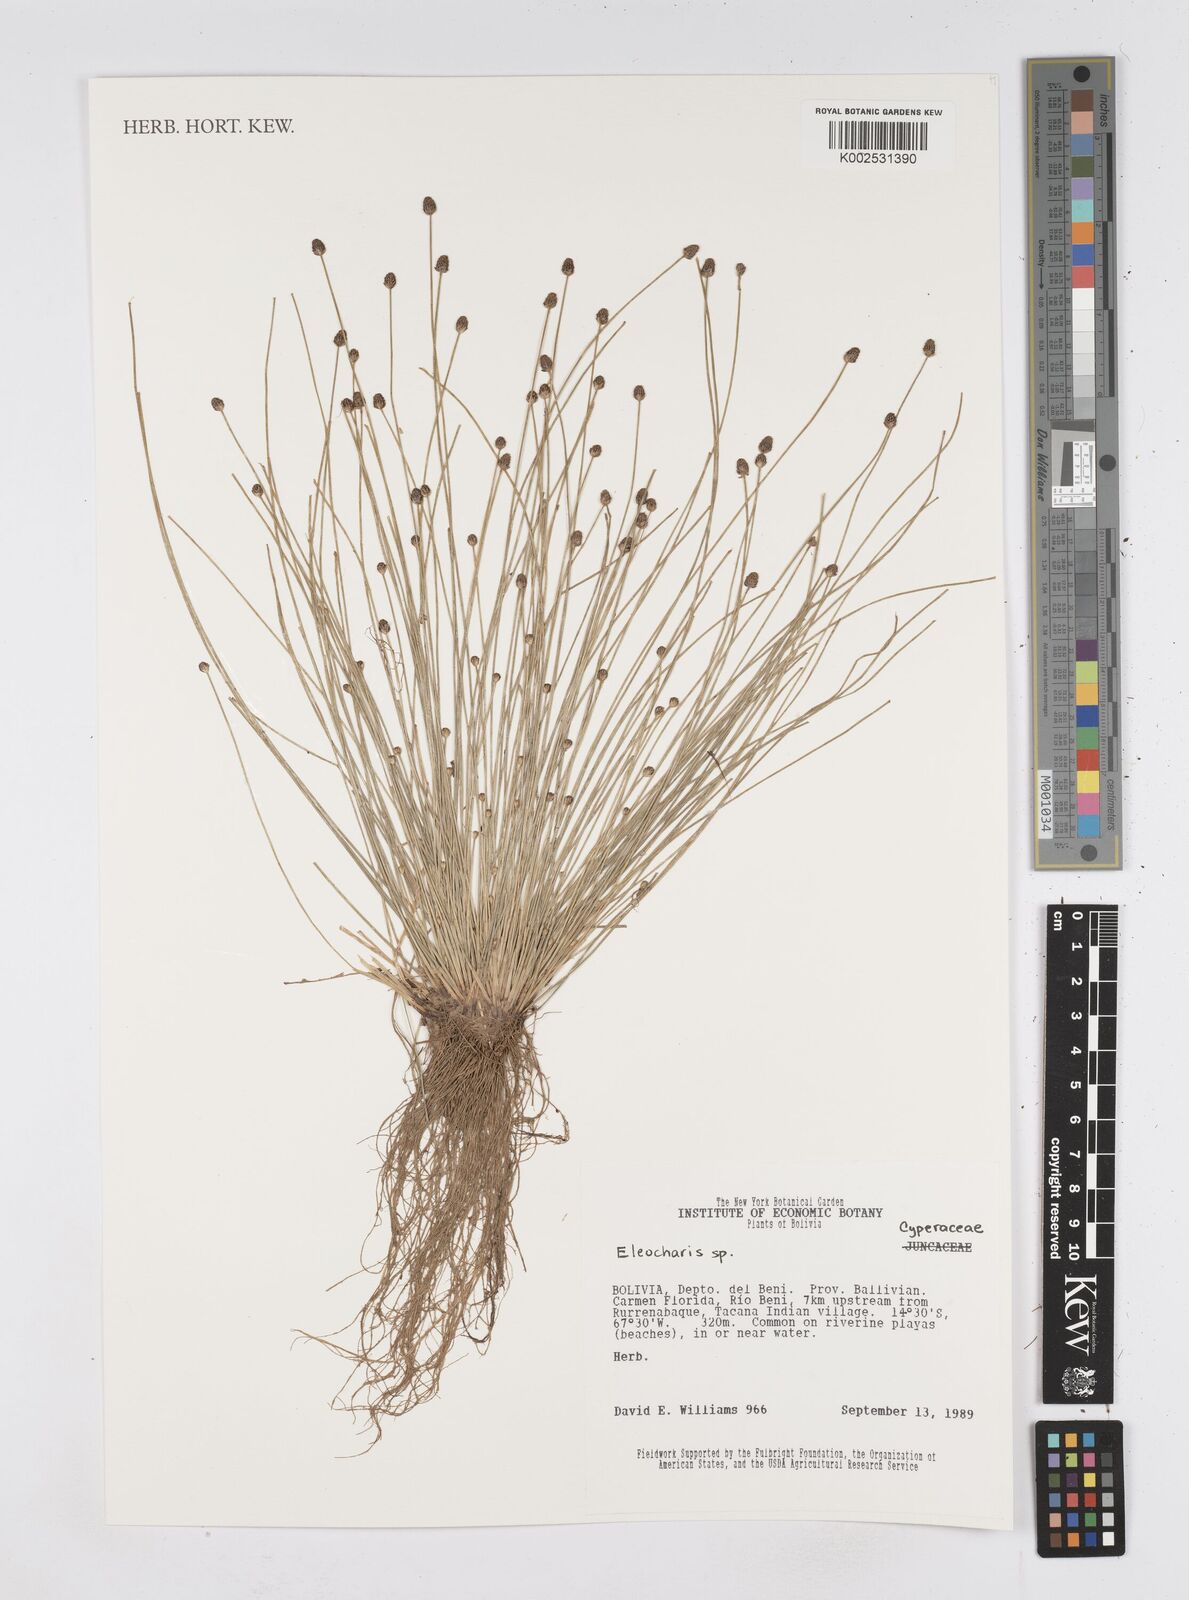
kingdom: Plantae
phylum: Tracheophyta
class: Liliopsida
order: Poales
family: Cyperaceae
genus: Eleocharis
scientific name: Eleocharis
